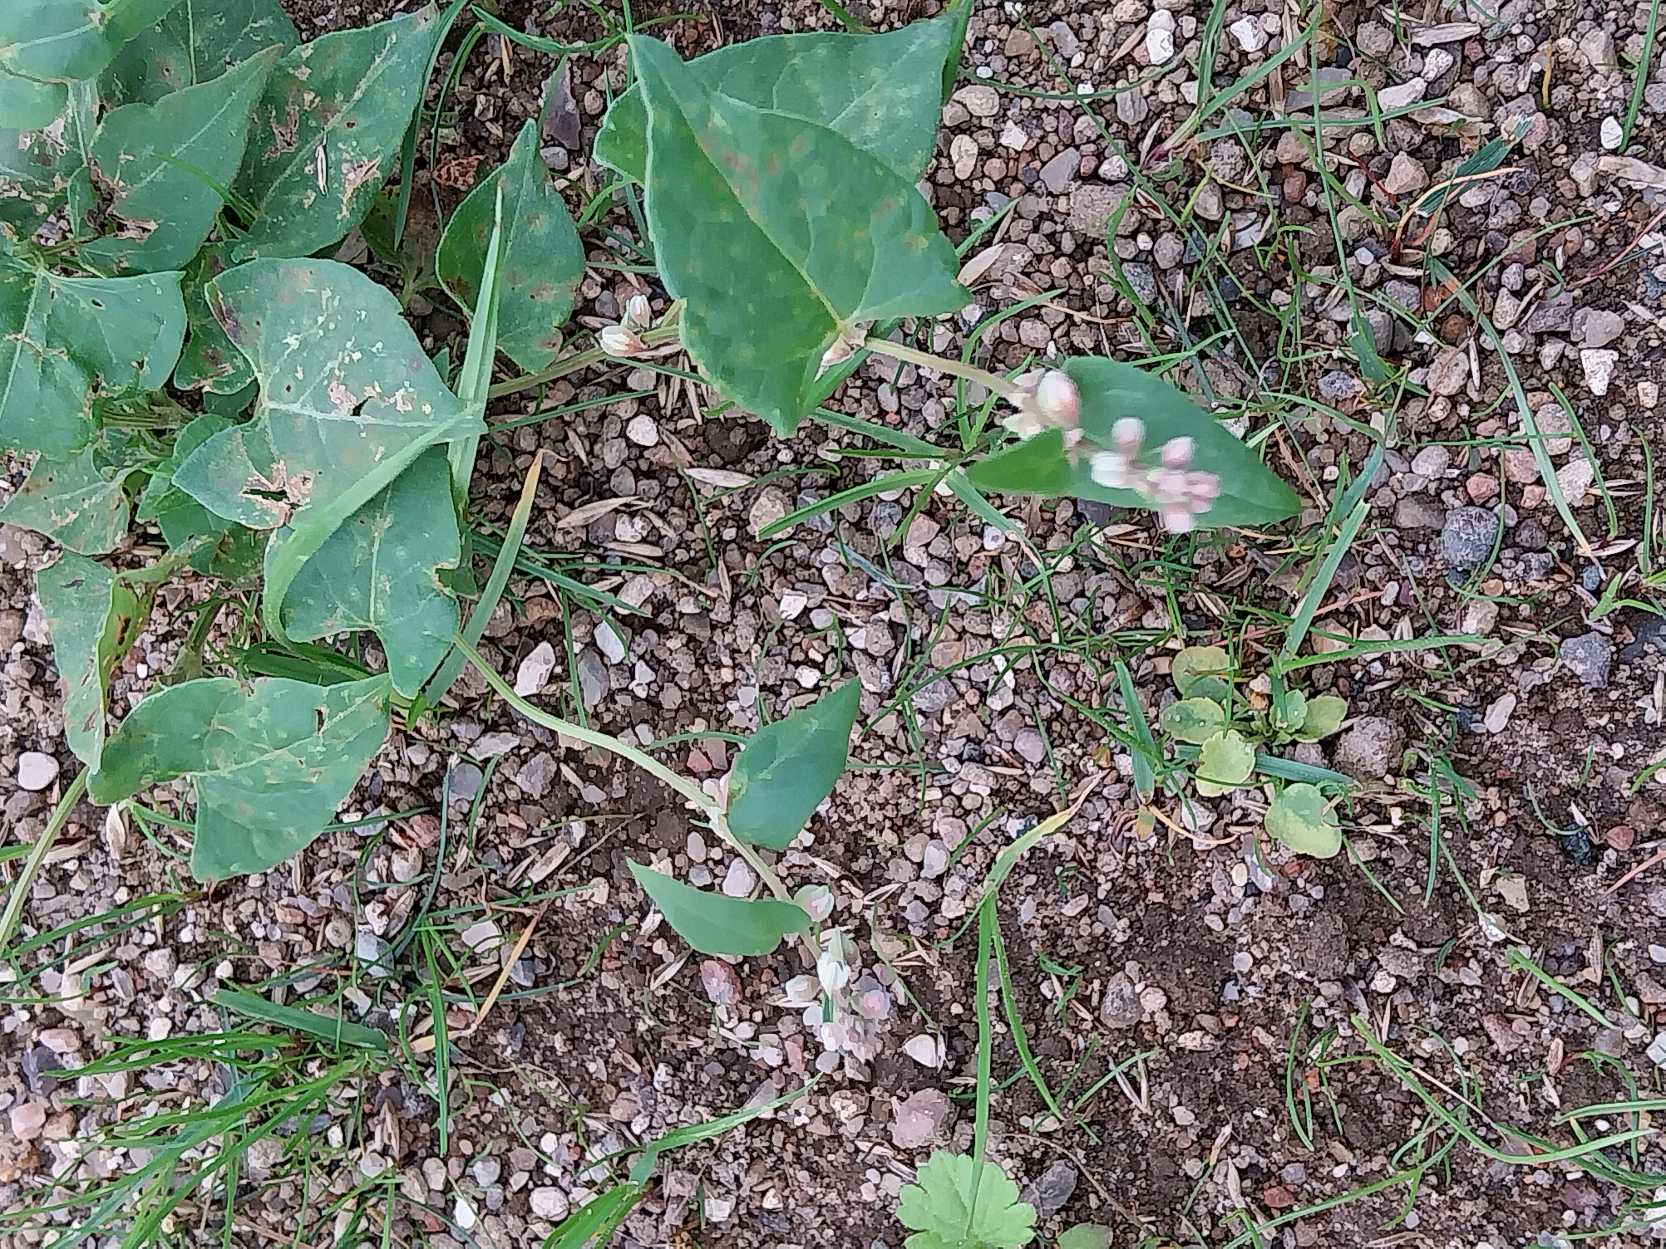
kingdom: Plantae
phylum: Tracheophyta
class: Magnoliopsida
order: Caryophyllales
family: Polygonaceae
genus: Fallopia
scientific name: Fallopia convolvulus
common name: Snerle-pileurt
